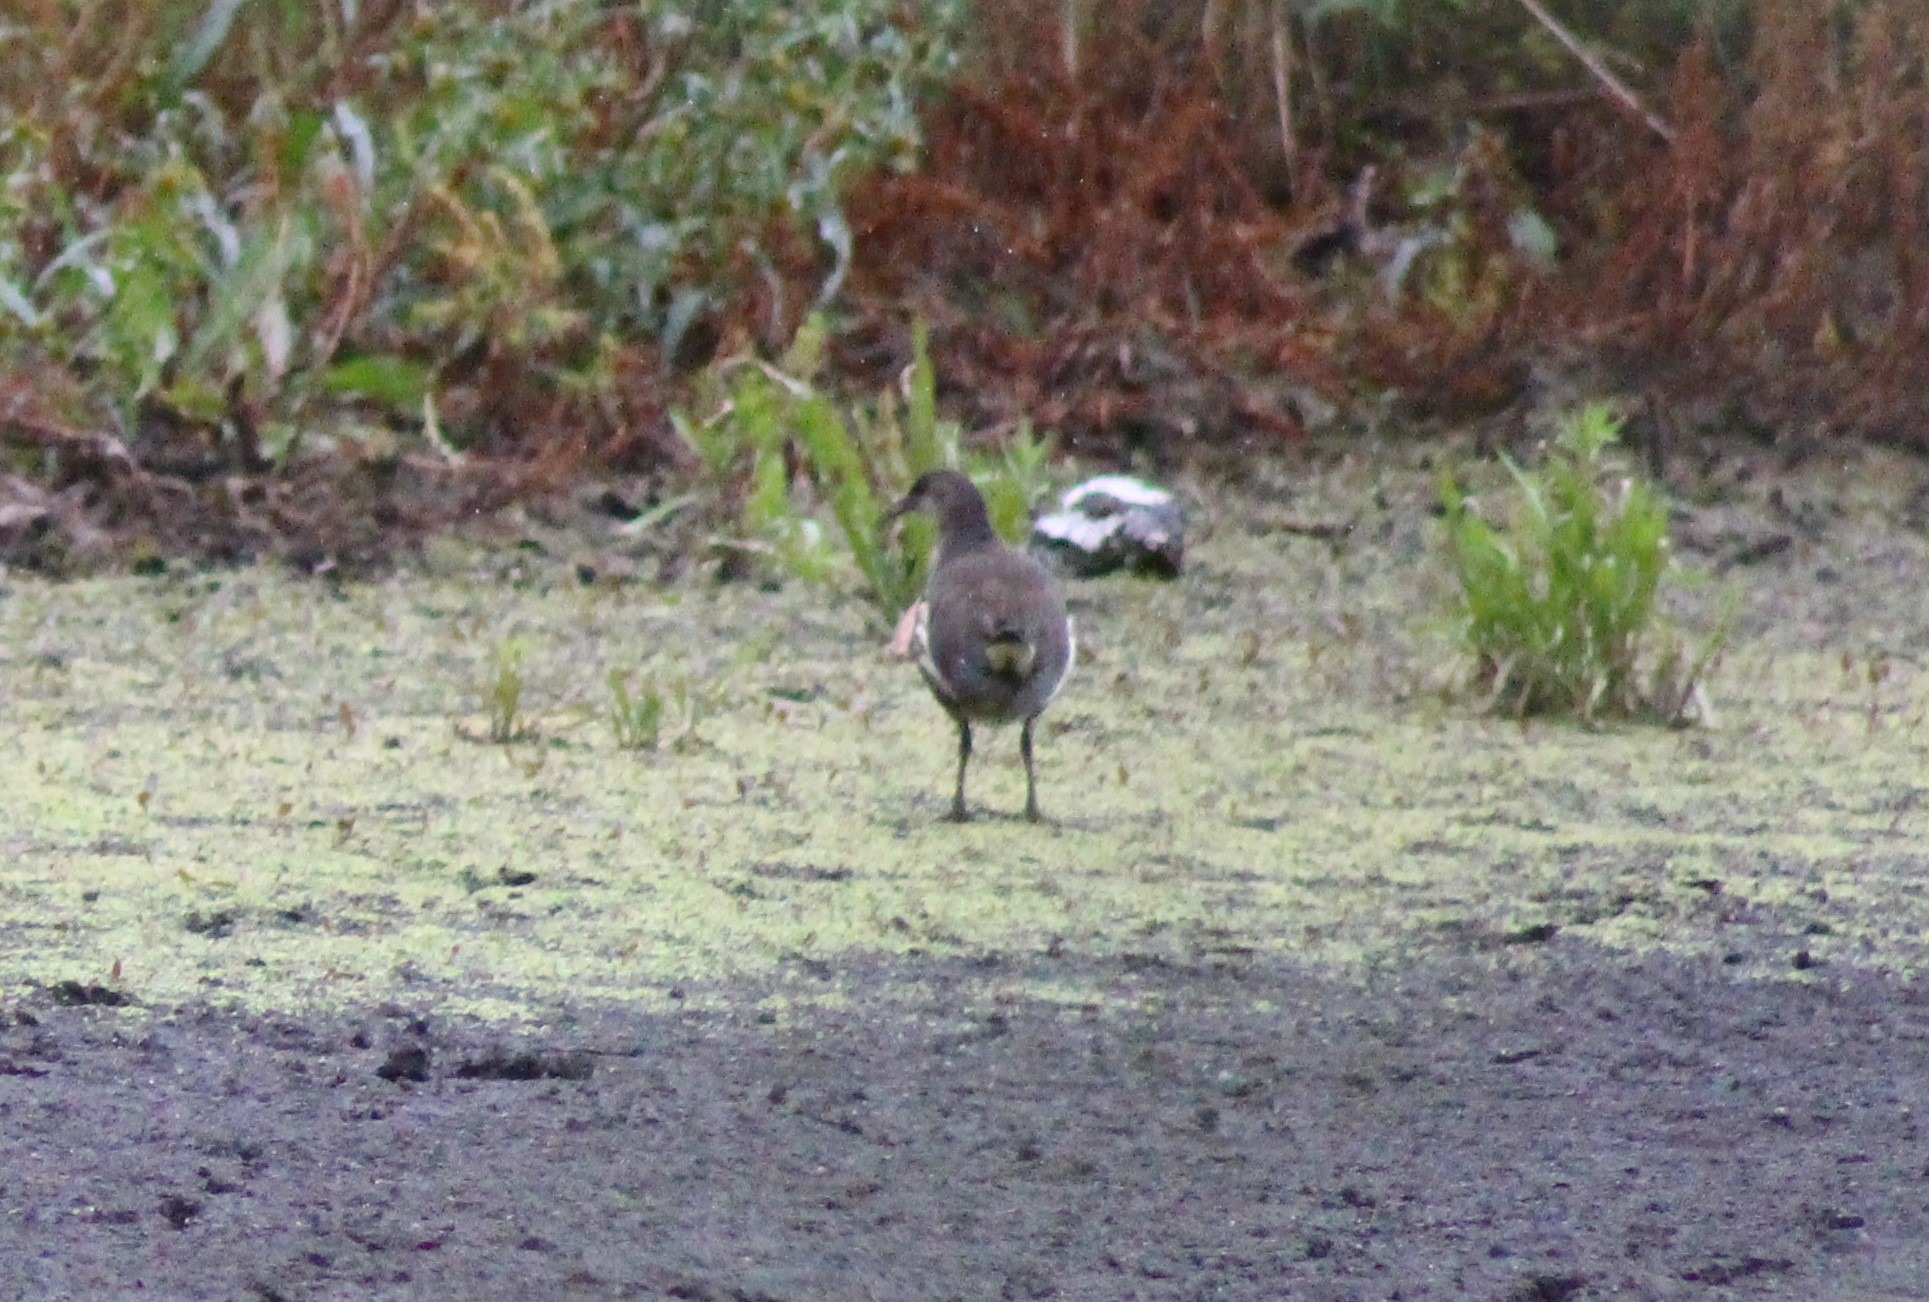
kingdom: Animalia
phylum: Chordata
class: Aves
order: Gruiformes
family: Rallidae
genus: Gallinula
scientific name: Gallinula chloropus
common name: Grønbenet rørhøne
